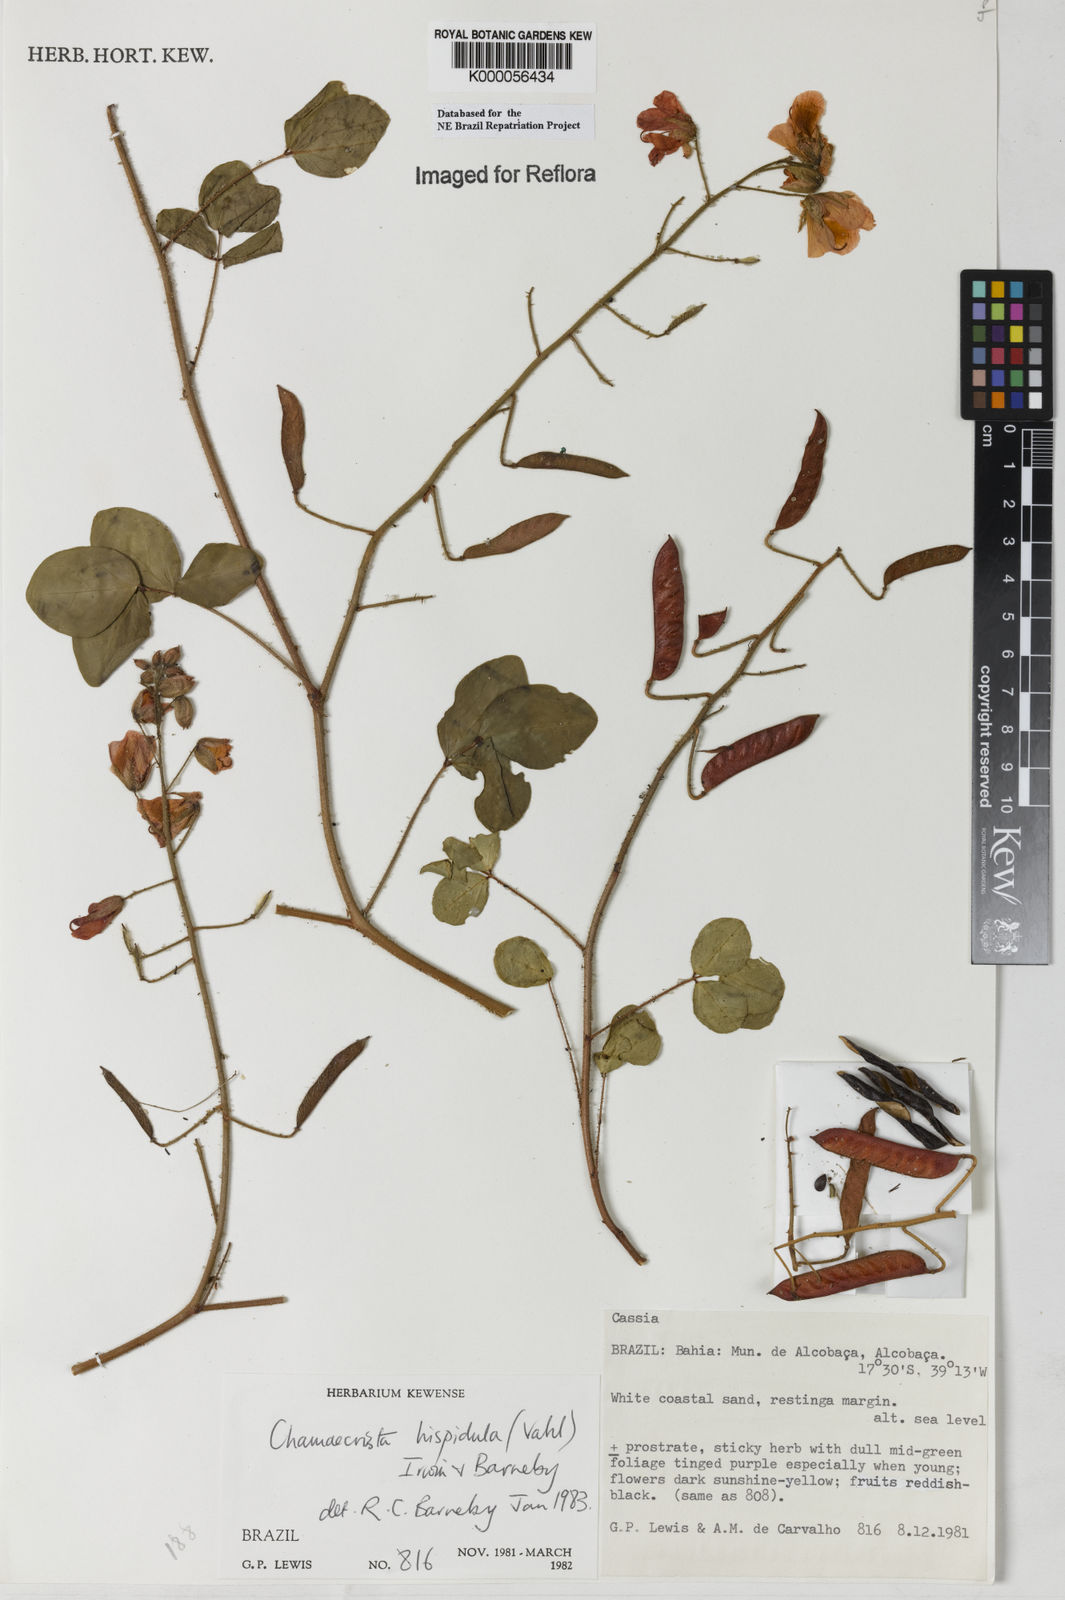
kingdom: Plantae
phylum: Tracheophyta
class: Magnoliopsida
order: Fabales
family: Fabaceae
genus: Chamaecrista
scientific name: Chamaecrista hispidula
